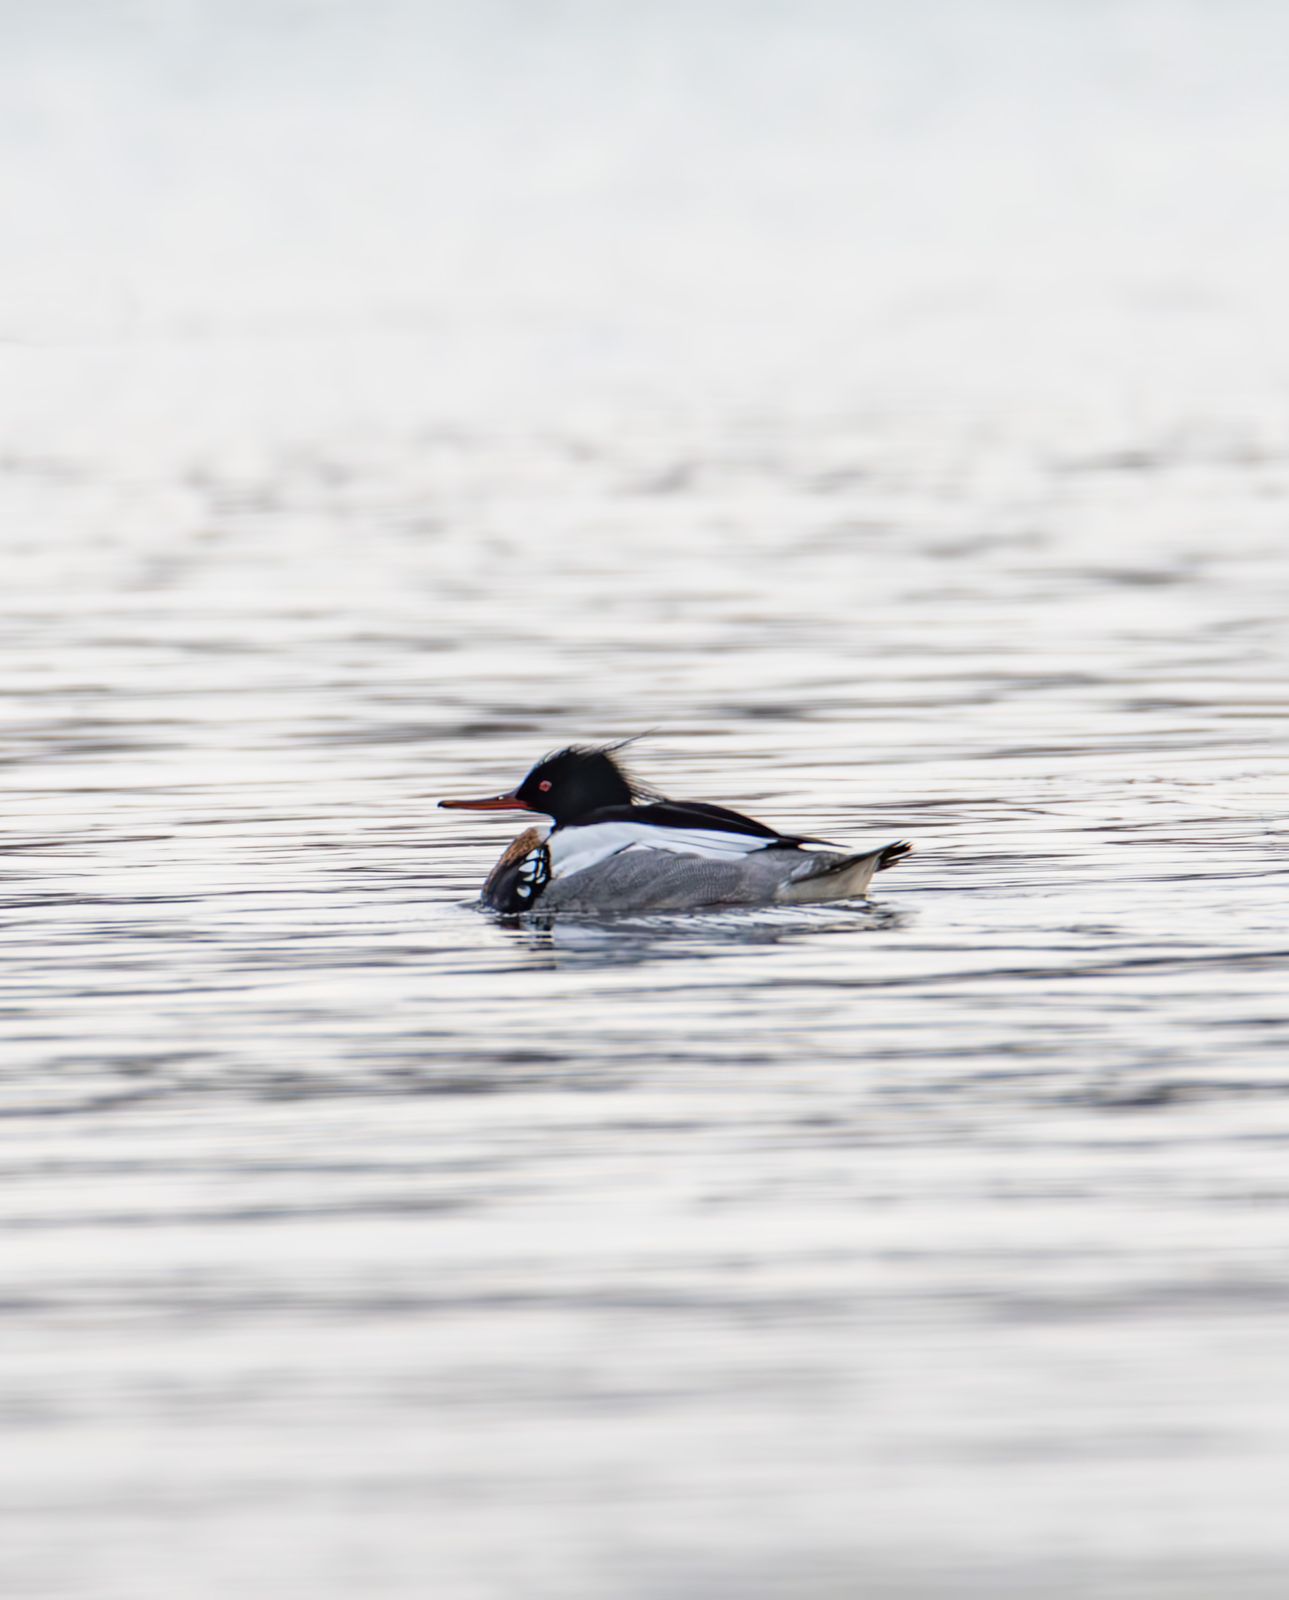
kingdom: Animalia
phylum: Chordata
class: Aves
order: Anseriformes
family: Anatidae
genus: Mergus
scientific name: Mergus serrator
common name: Red-breasted merganser
